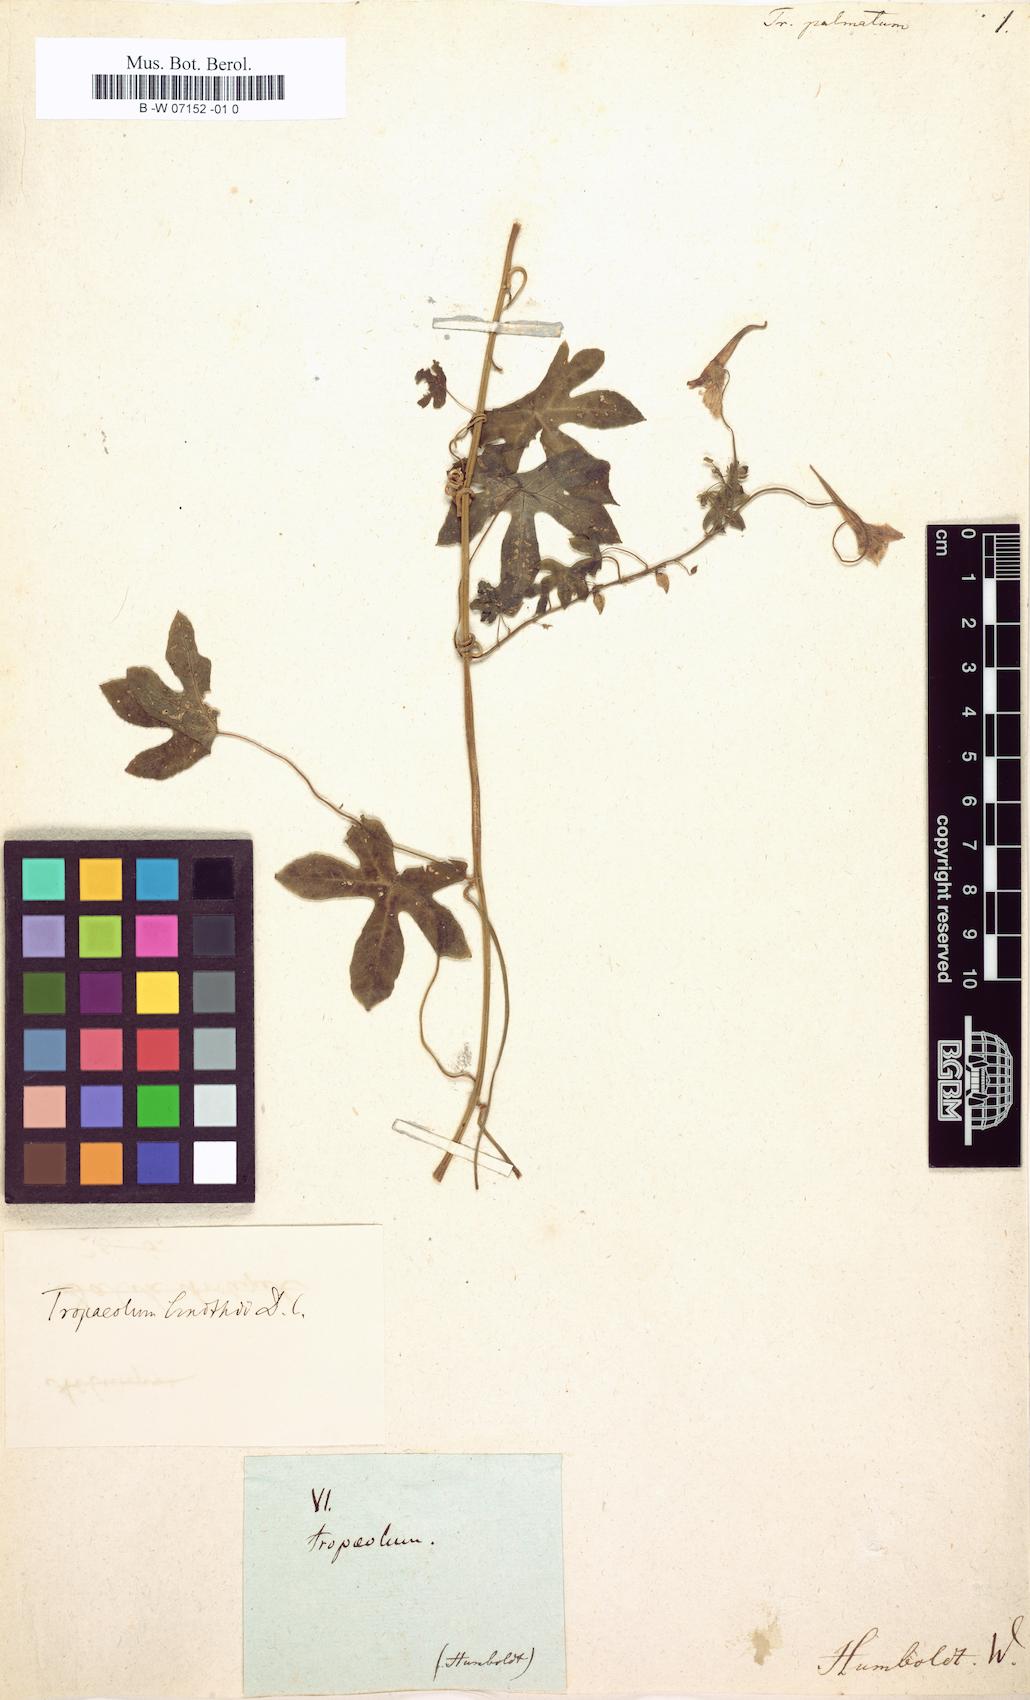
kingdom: Plantae
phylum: Tracheophyta
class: Magnoliopsida
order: Brassicales
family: Tropaeolaceae
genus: Tropaeolum
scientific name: Tropaeolum
